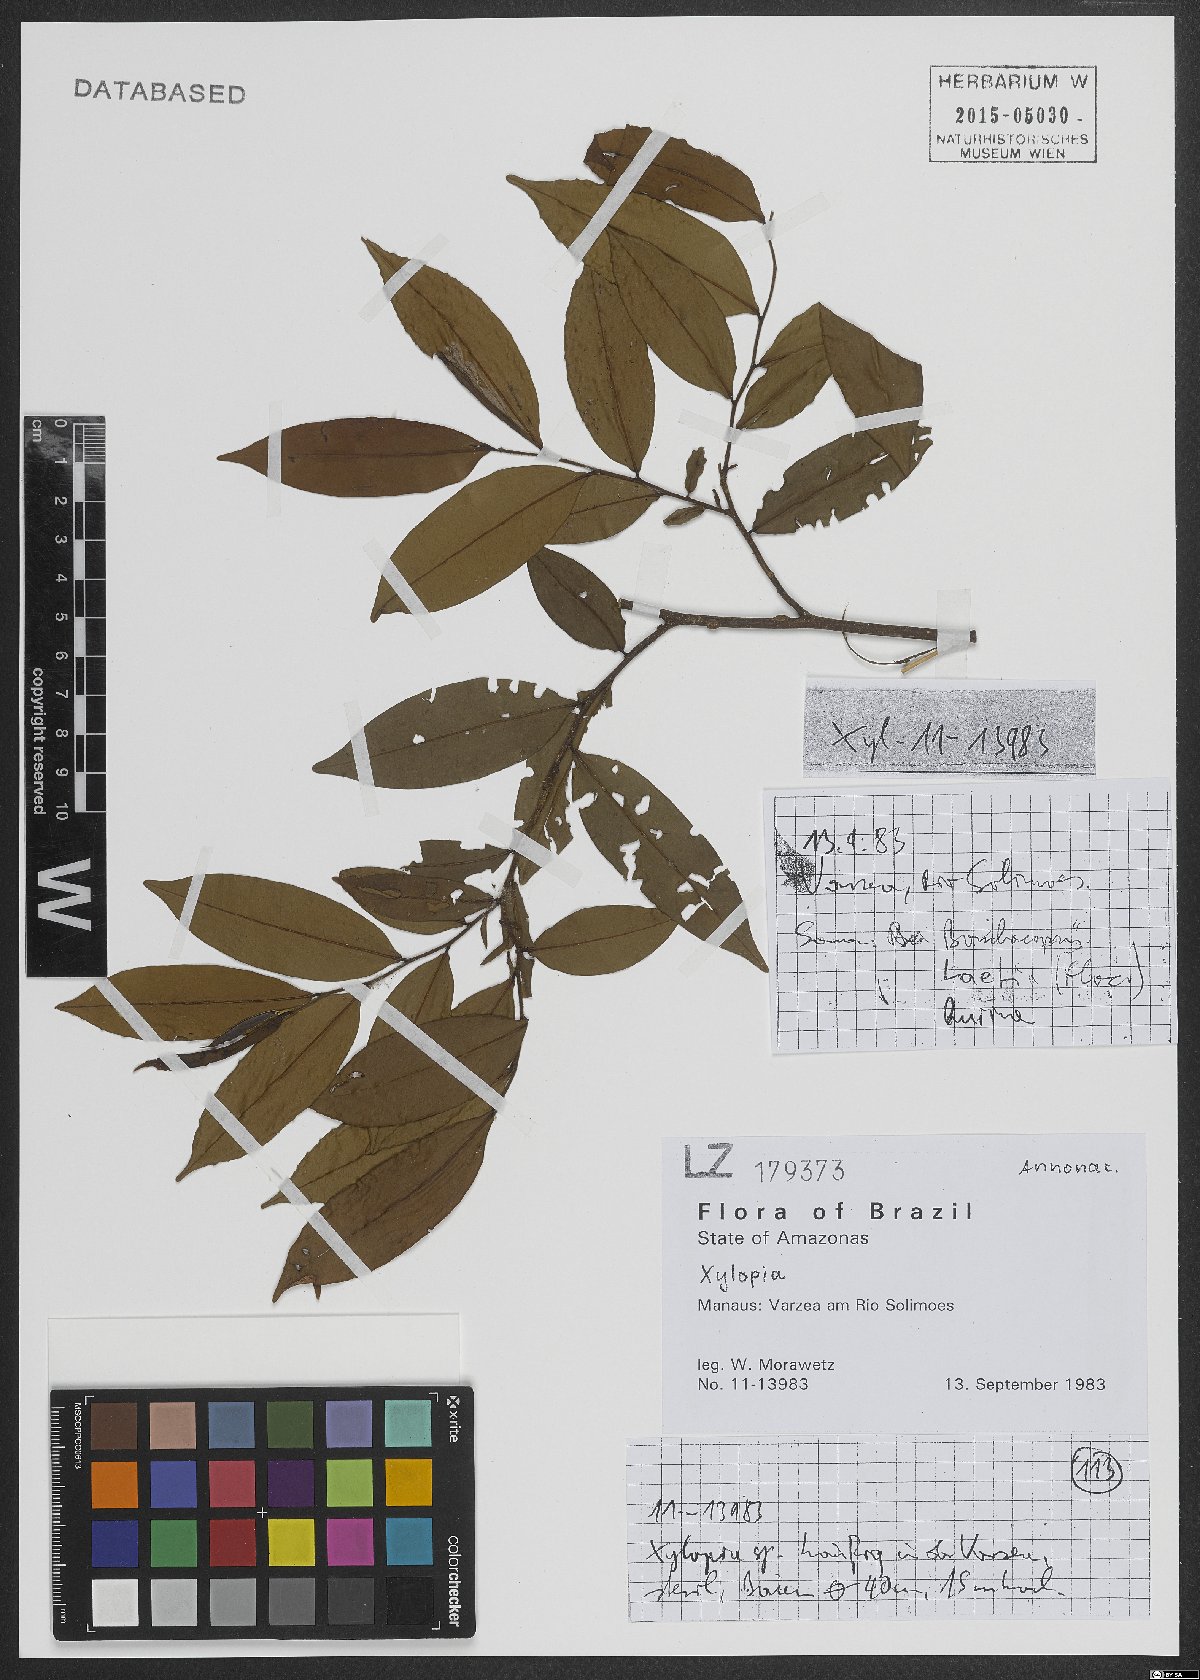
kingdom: Plantae
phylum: Tracheophyta
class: Magnoliopsida
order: Magnoliales
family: Annonaceae
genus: Xylopia
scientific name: Xylopia
